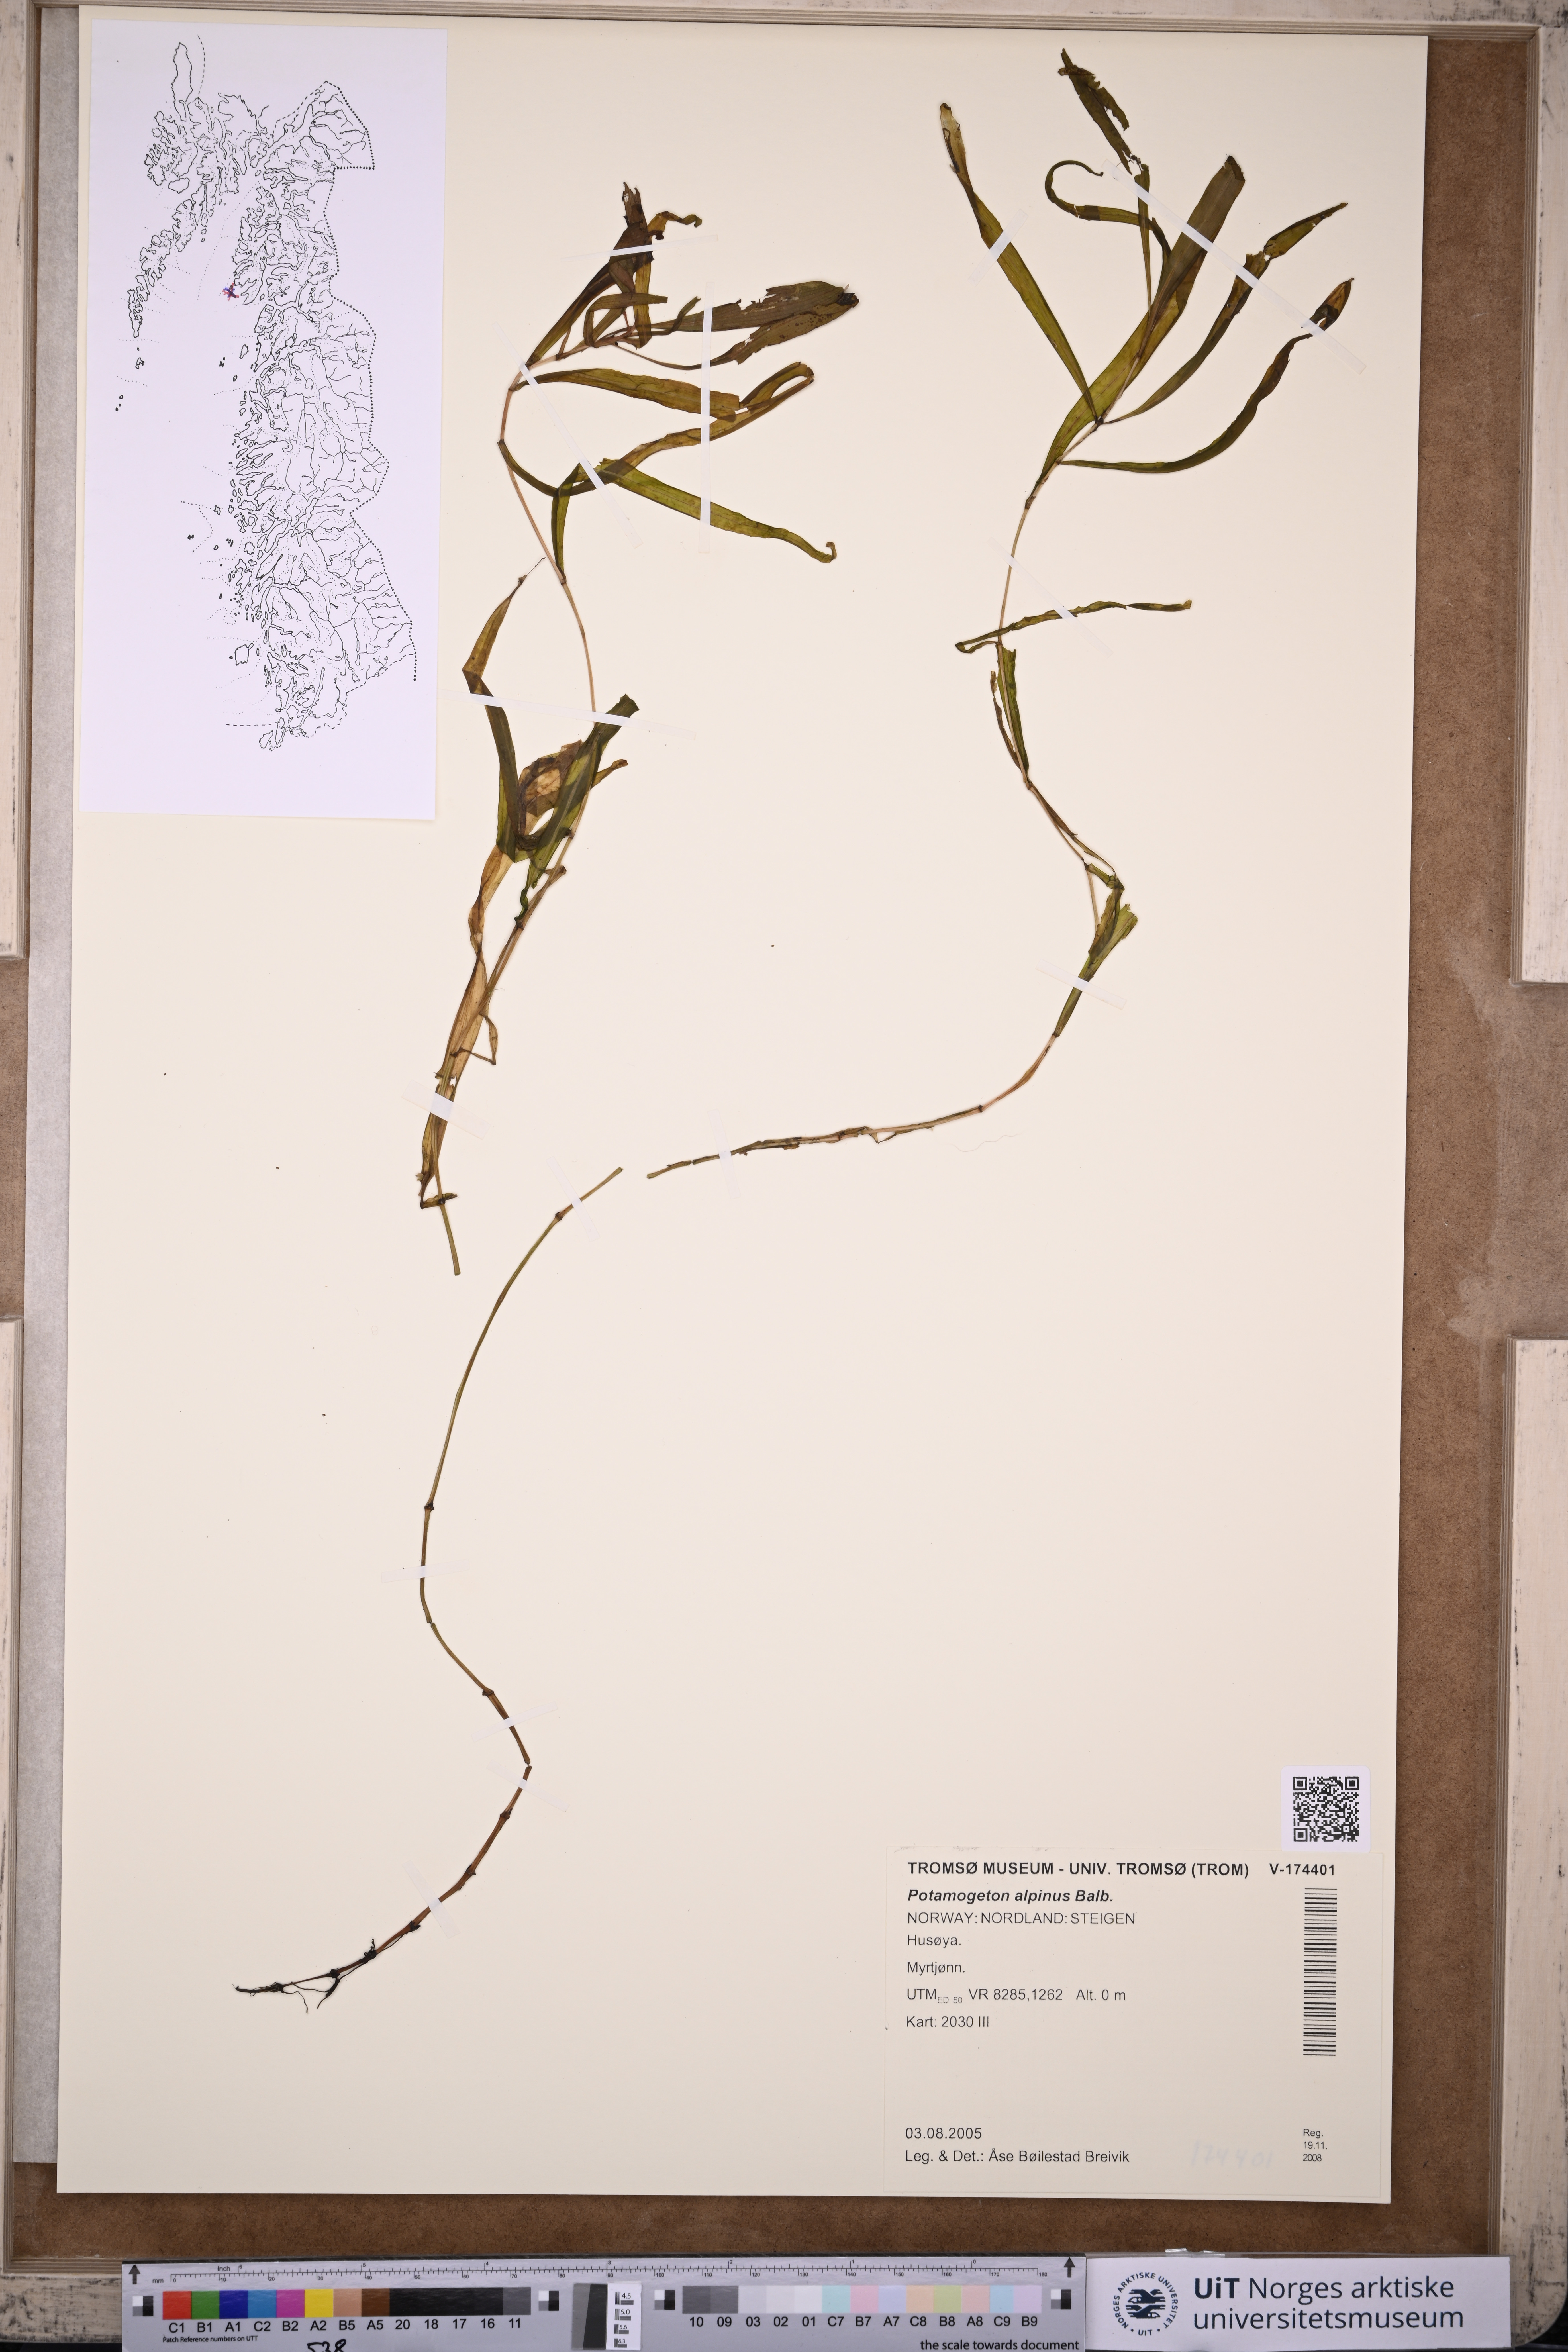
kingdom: Plantae
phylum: Tracheophyta
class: Liliopsida
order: Alismatales
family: Potamogetonaceae
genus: Potamogeton
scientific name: Potamogeton alpinus
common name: Red pondweed
